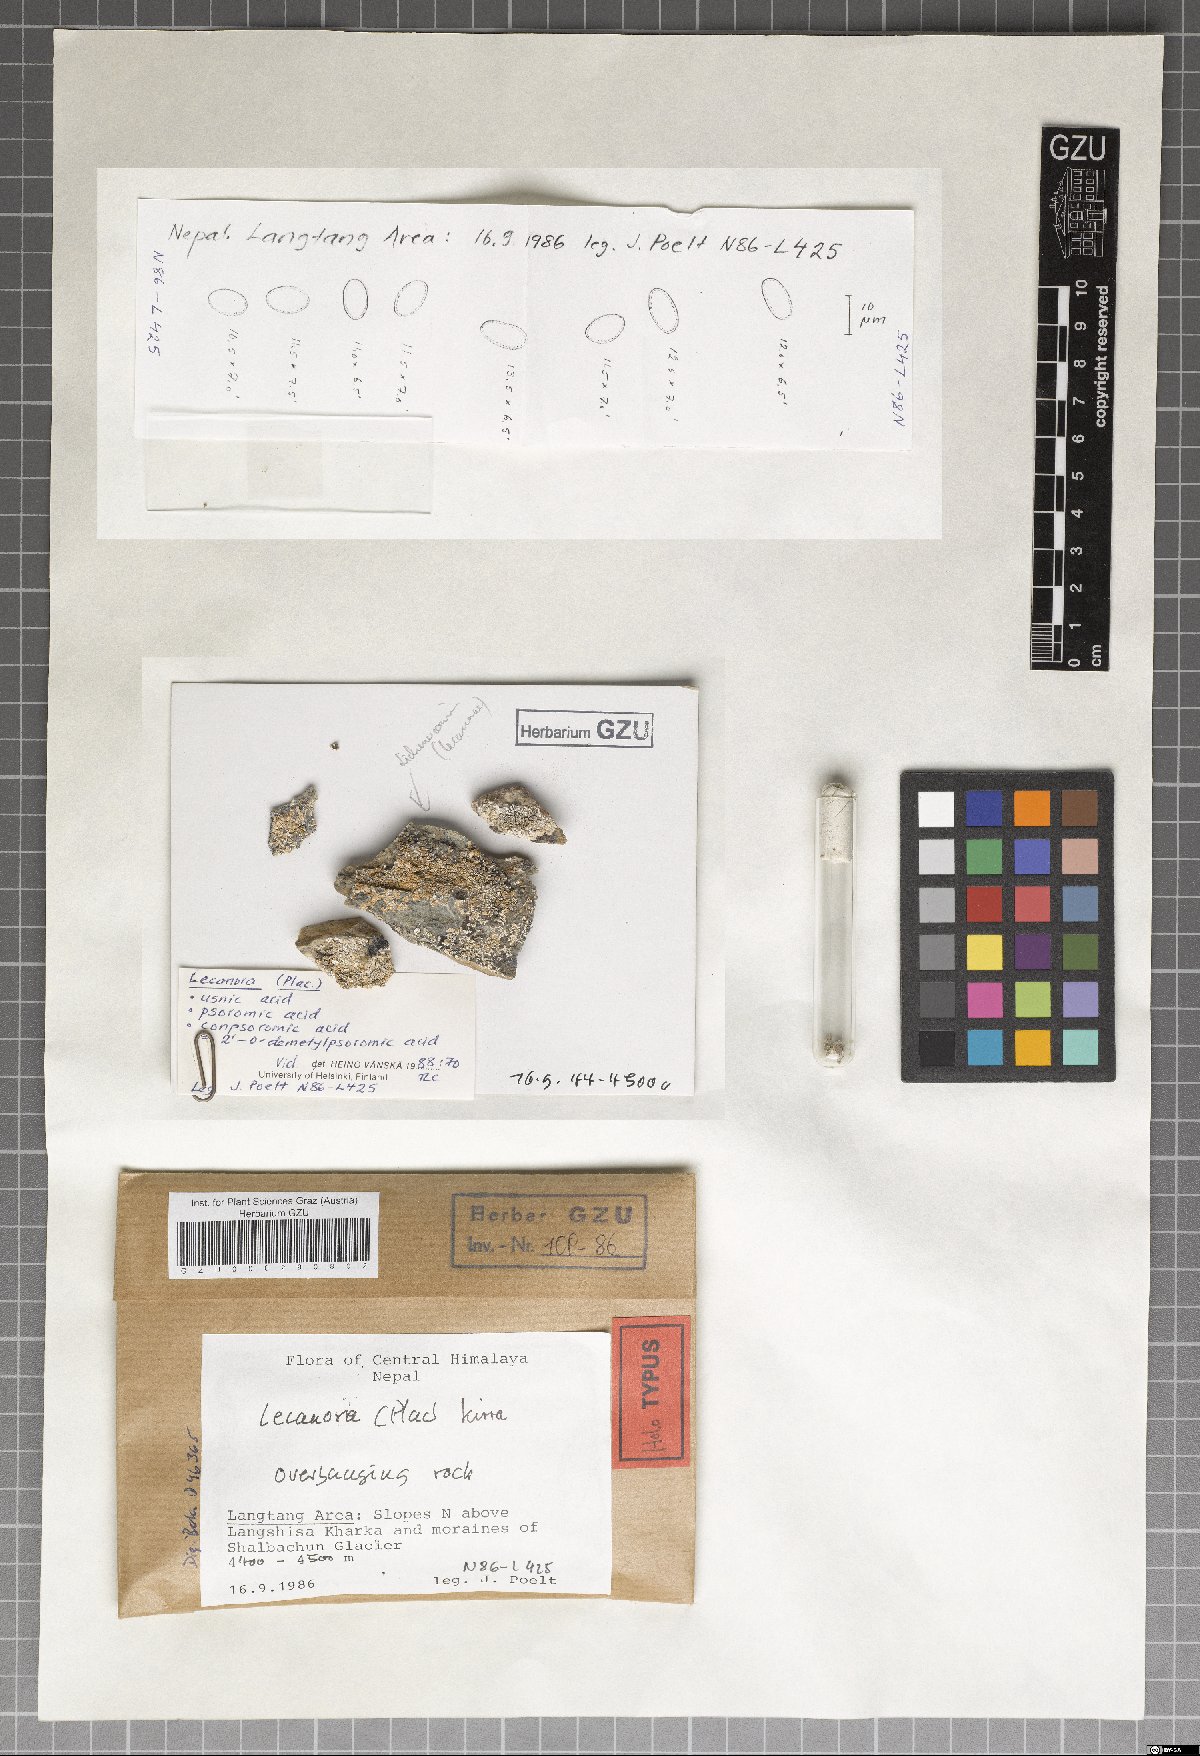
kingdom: Fungi
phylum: Ascomycota
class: Lecanoromycetes
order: Lecanorales
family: Lecanoraceae
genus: Lecanora
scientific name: Lecanora kirra
